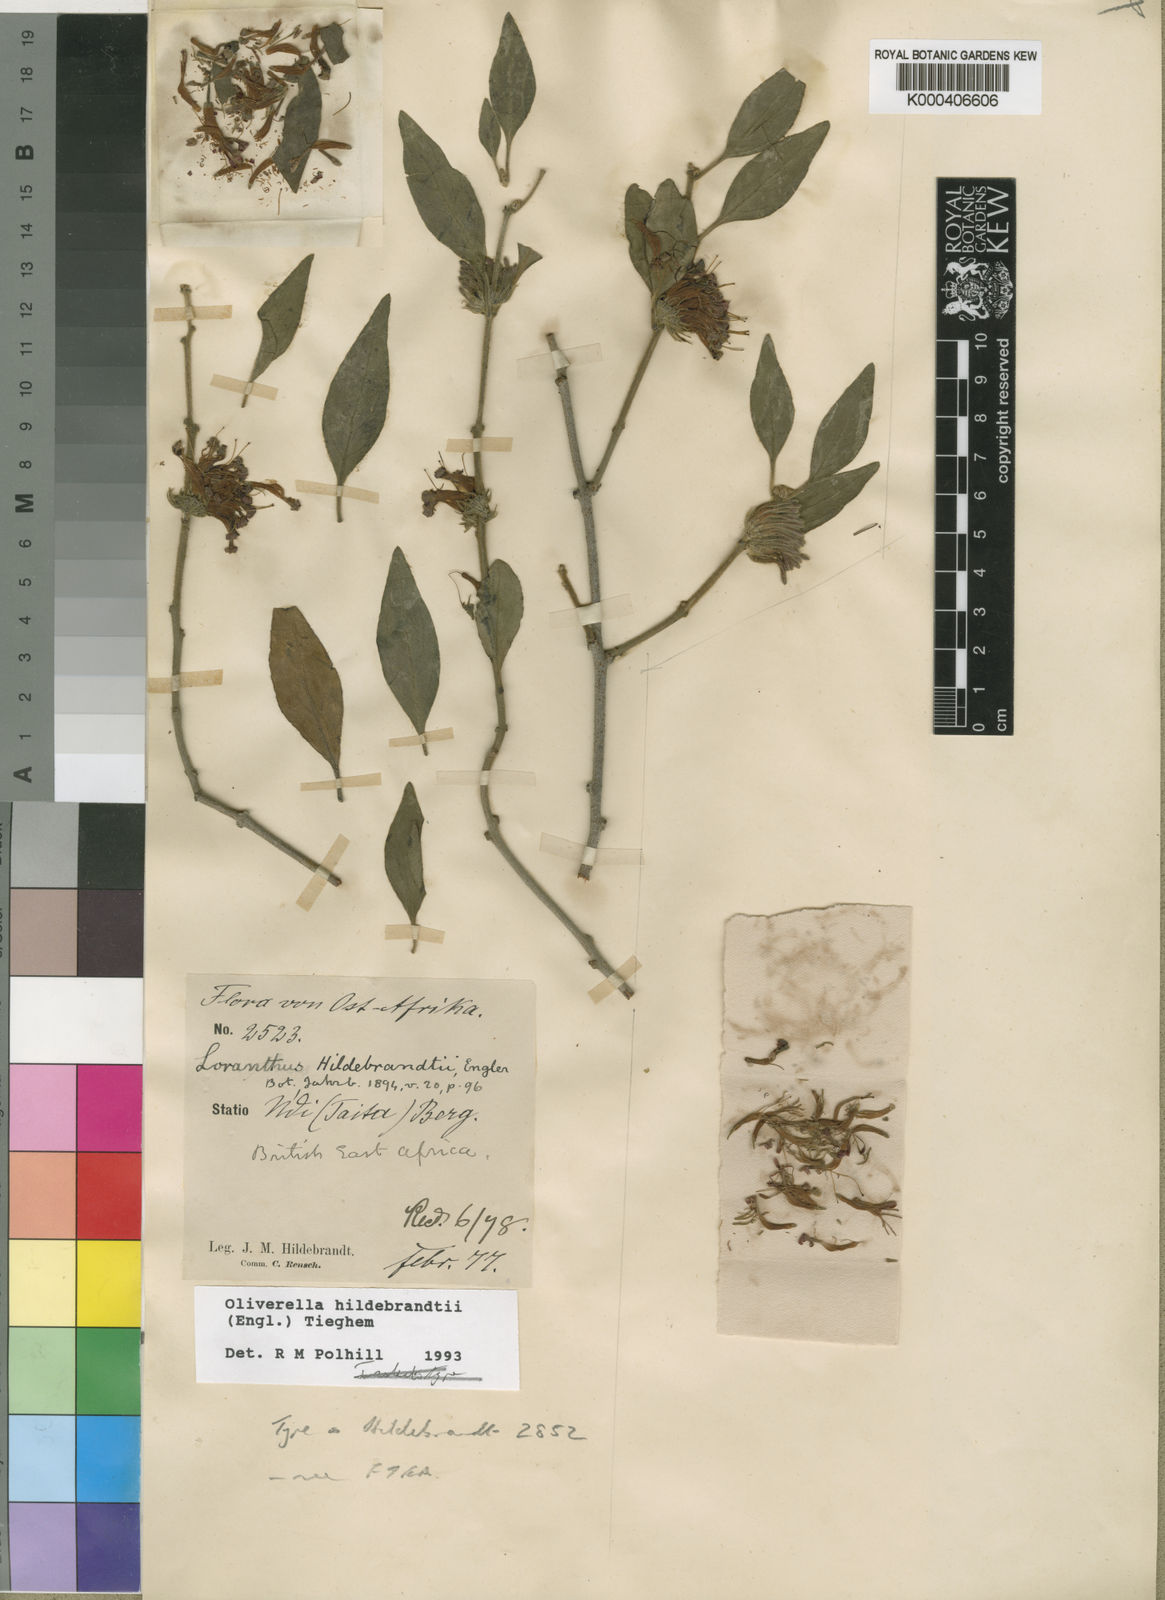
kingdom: Plantae
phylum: Tracheophyta
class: Magnoliopsida
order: Santalales
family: Loranthaceae
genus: Oliverella
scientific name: Oliverella hildebrandtii
